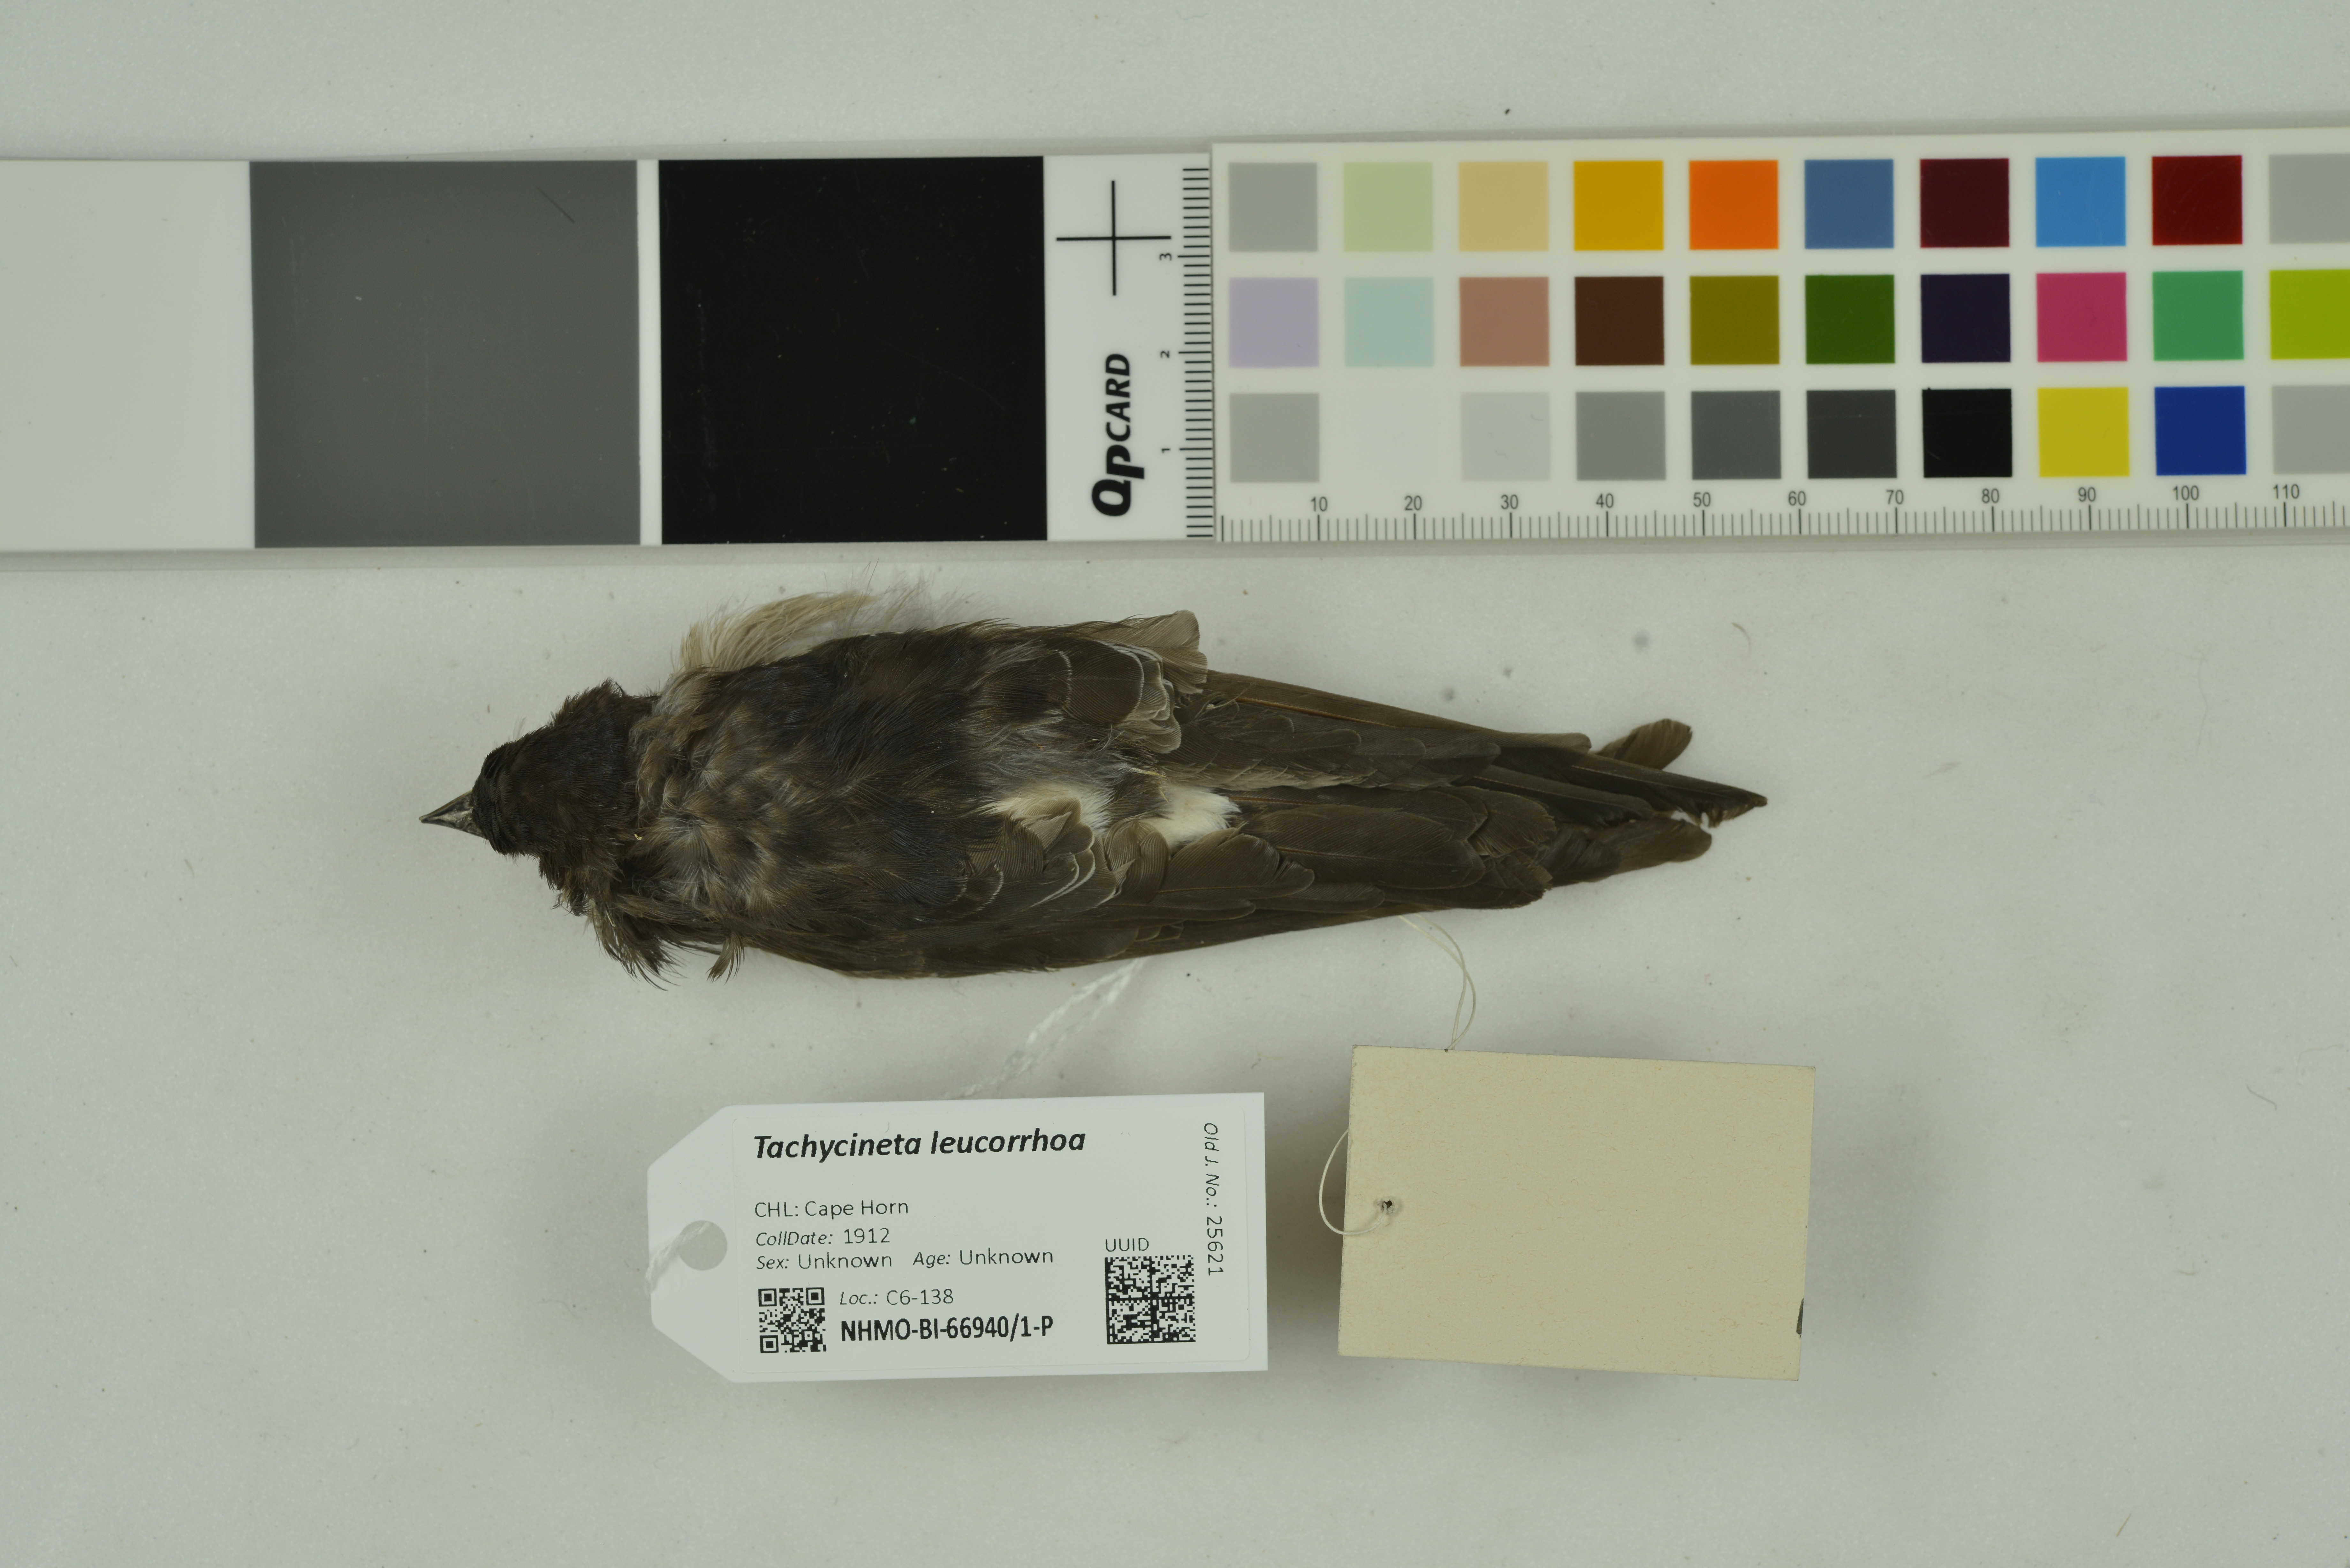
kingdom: Animalia
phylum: Chordata
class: Aves
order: Passeriformes
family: Hirundinidae
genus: Tachycineta
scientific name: Tachycineta leucorrhoa
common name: White-rumped swallow
